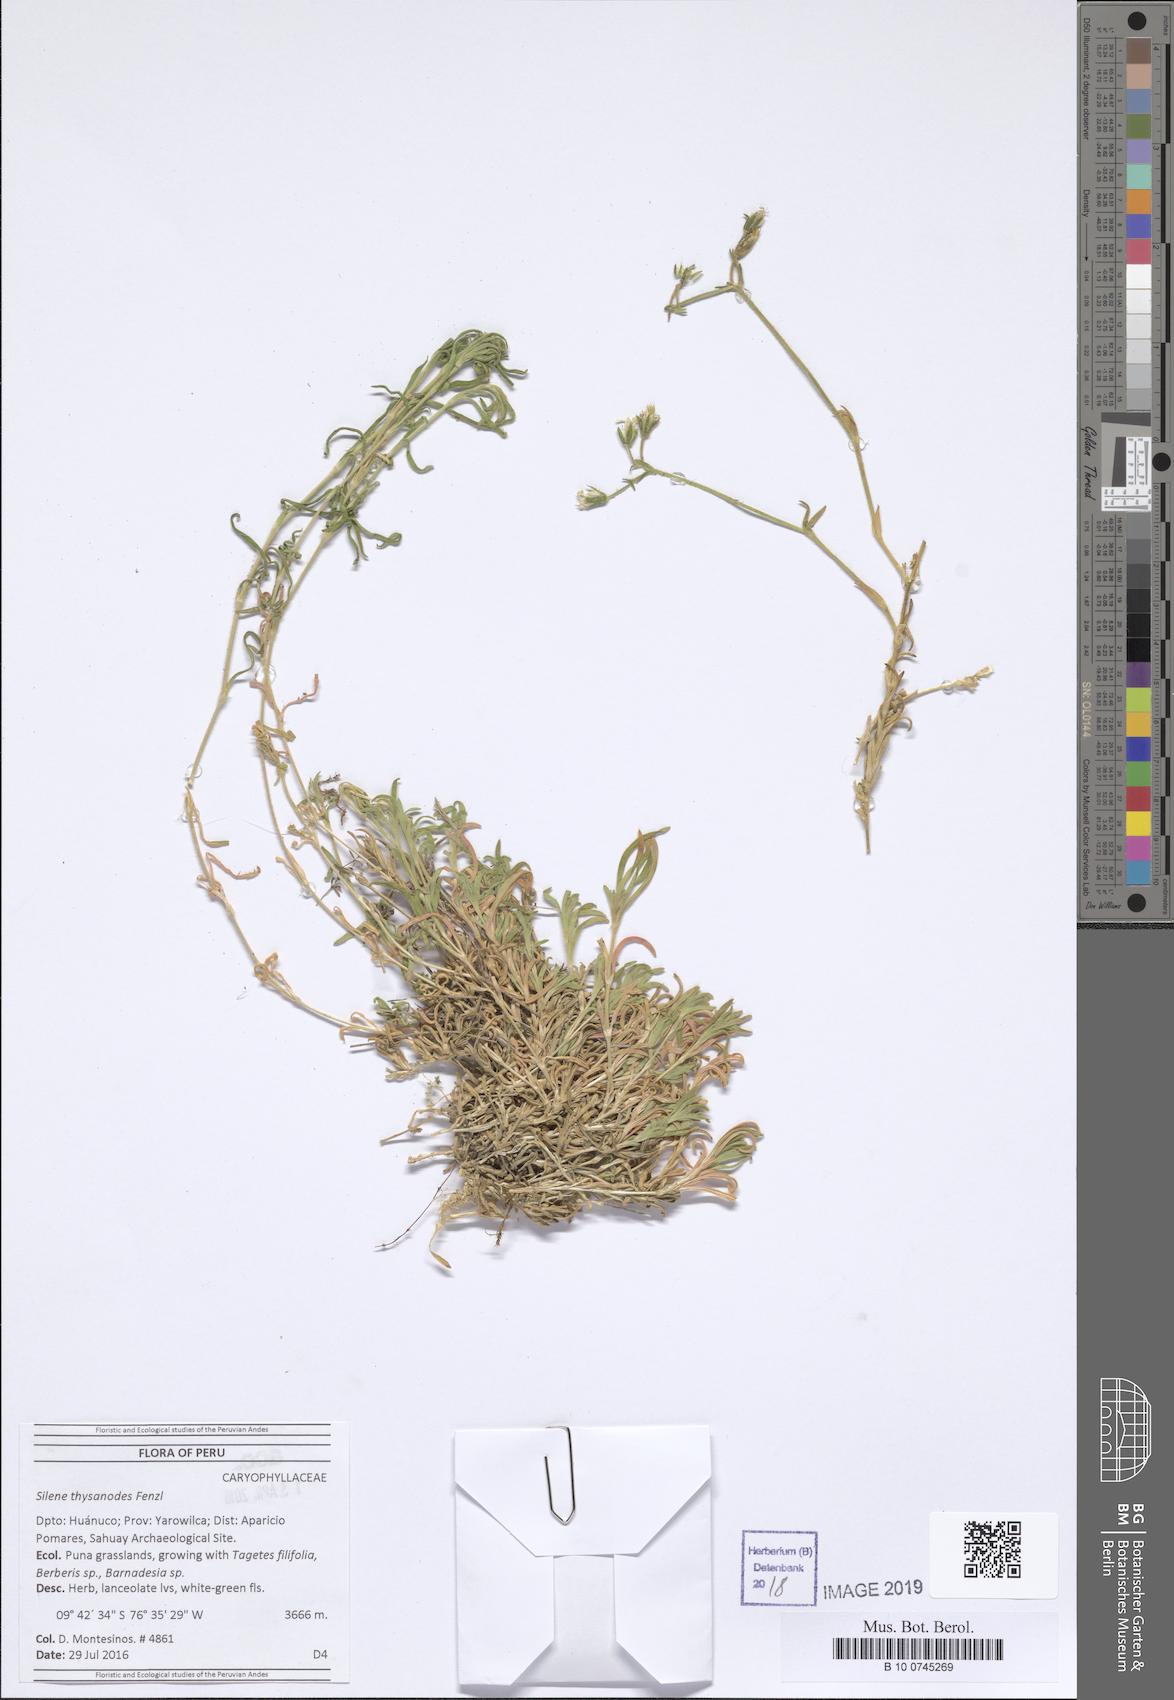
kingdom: Plantae
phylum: Tracheophyta
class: Magnoliopsida
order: Caryophyllales
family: Caryophyllaceae
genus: Silene
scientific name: Silene thysanodes
